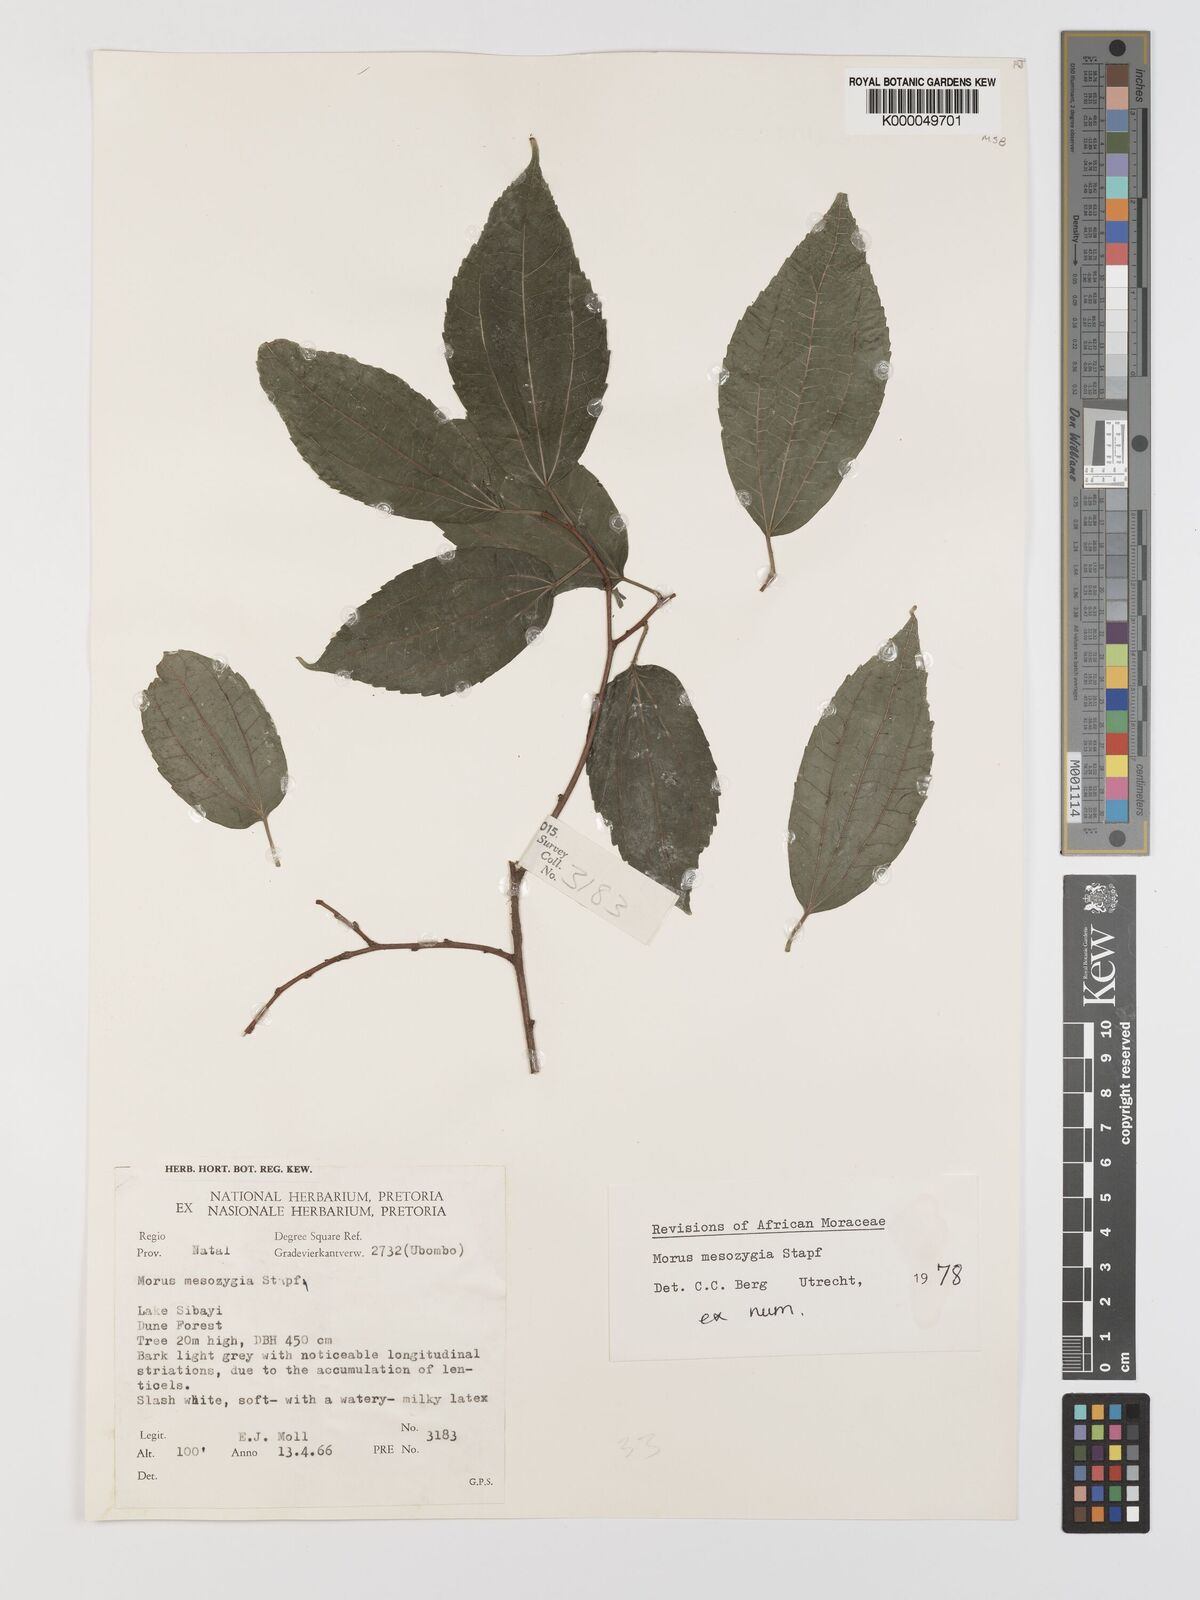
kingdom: Plantae
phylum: Tracheophyta
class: Magnoliopsida
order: Rosales
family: Moraceae
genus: Afromorus
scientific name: Afromorus mesozygia
